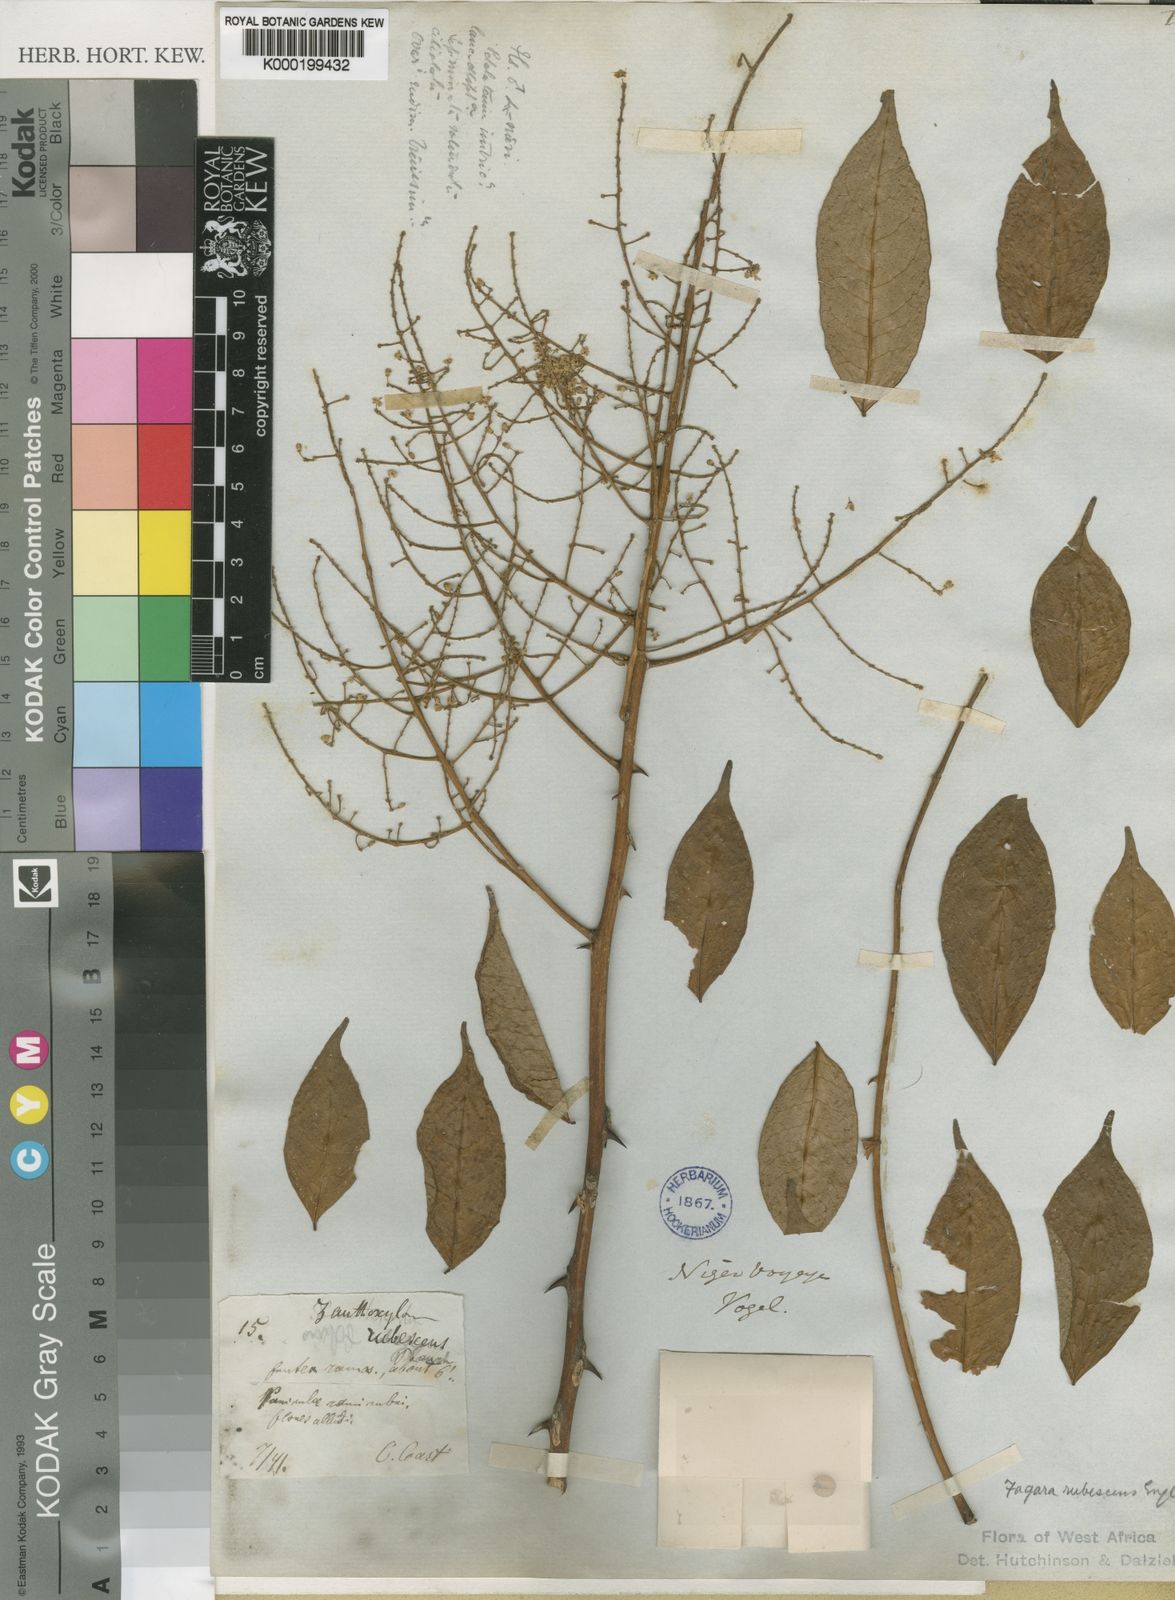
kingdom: Plantae
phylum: Tracheophyta
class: Magnoliopsida
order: Sapindales
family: Rutaceae
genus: Zanthoxylum
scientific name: Zanthoxylum
